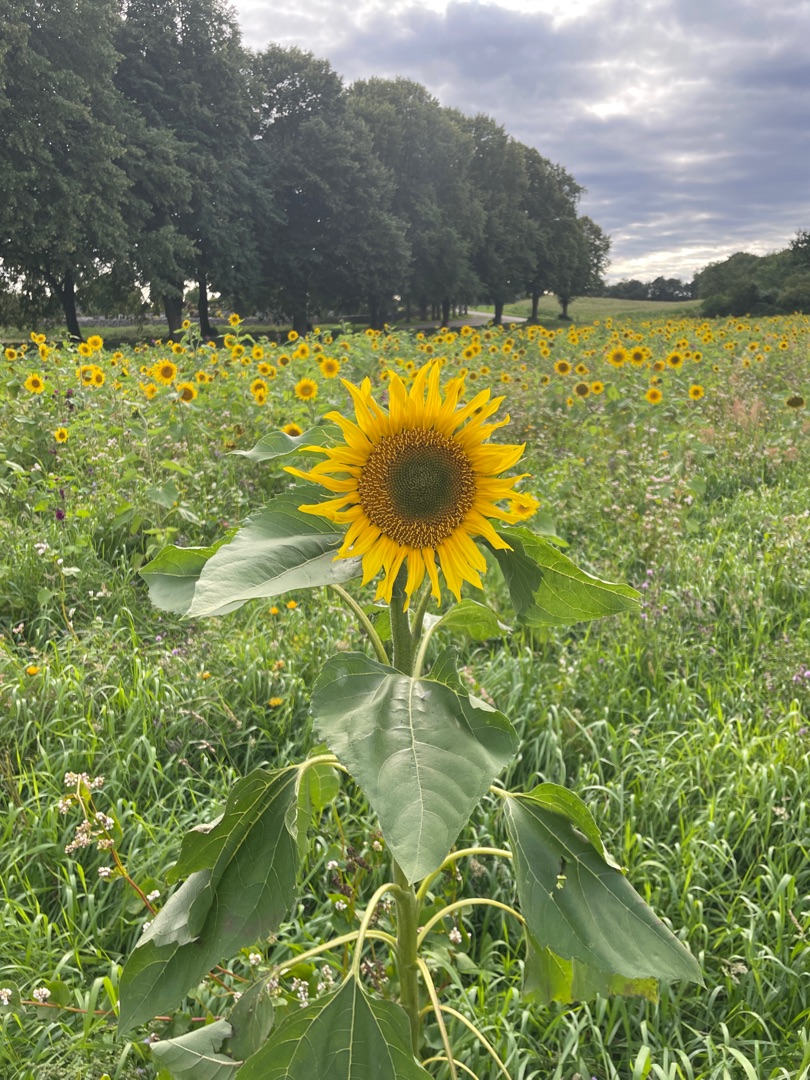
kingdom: Plantae
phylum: Tracheophyta
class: Magnoliopsida
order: Asterales
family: Asteraceae
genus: Helianthus
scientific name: Helianthus annuus
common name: Solsikke
